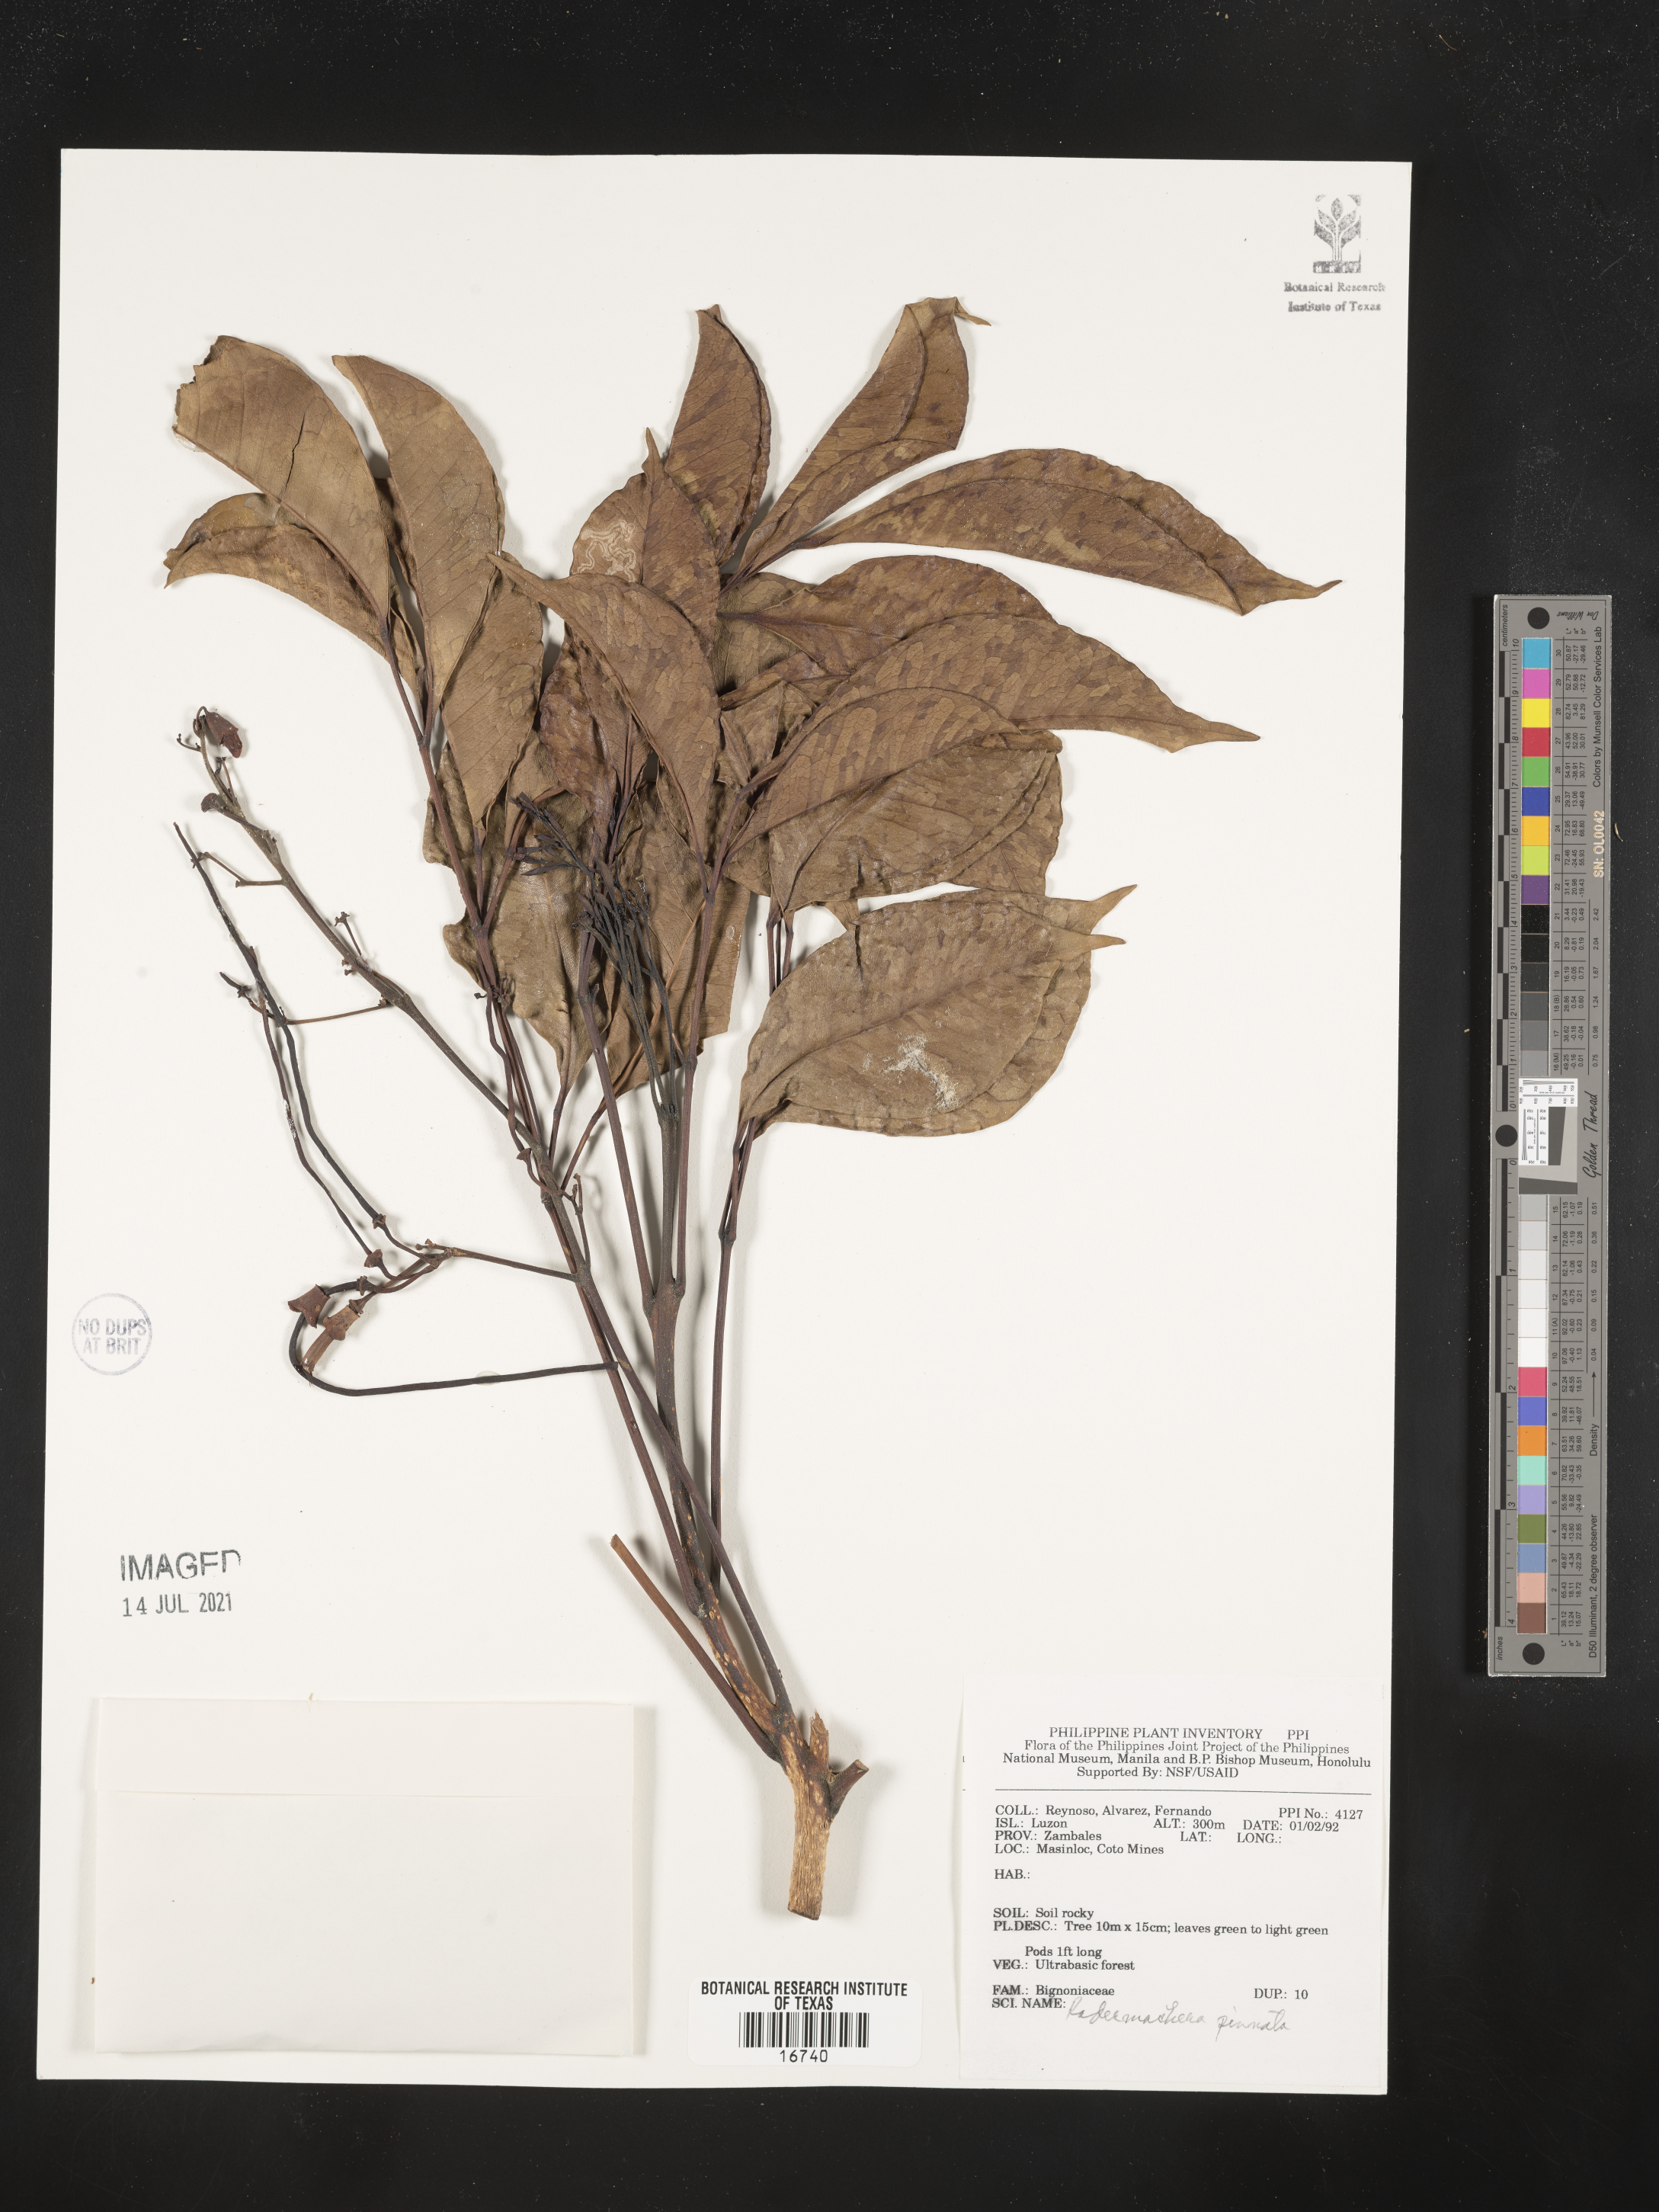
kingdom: Plantae
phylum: Tracheophyta
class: Magnoliopsida
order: Lamiales
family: Bignoniaceae
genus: Radermachera
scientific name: Radermachera pinnata
